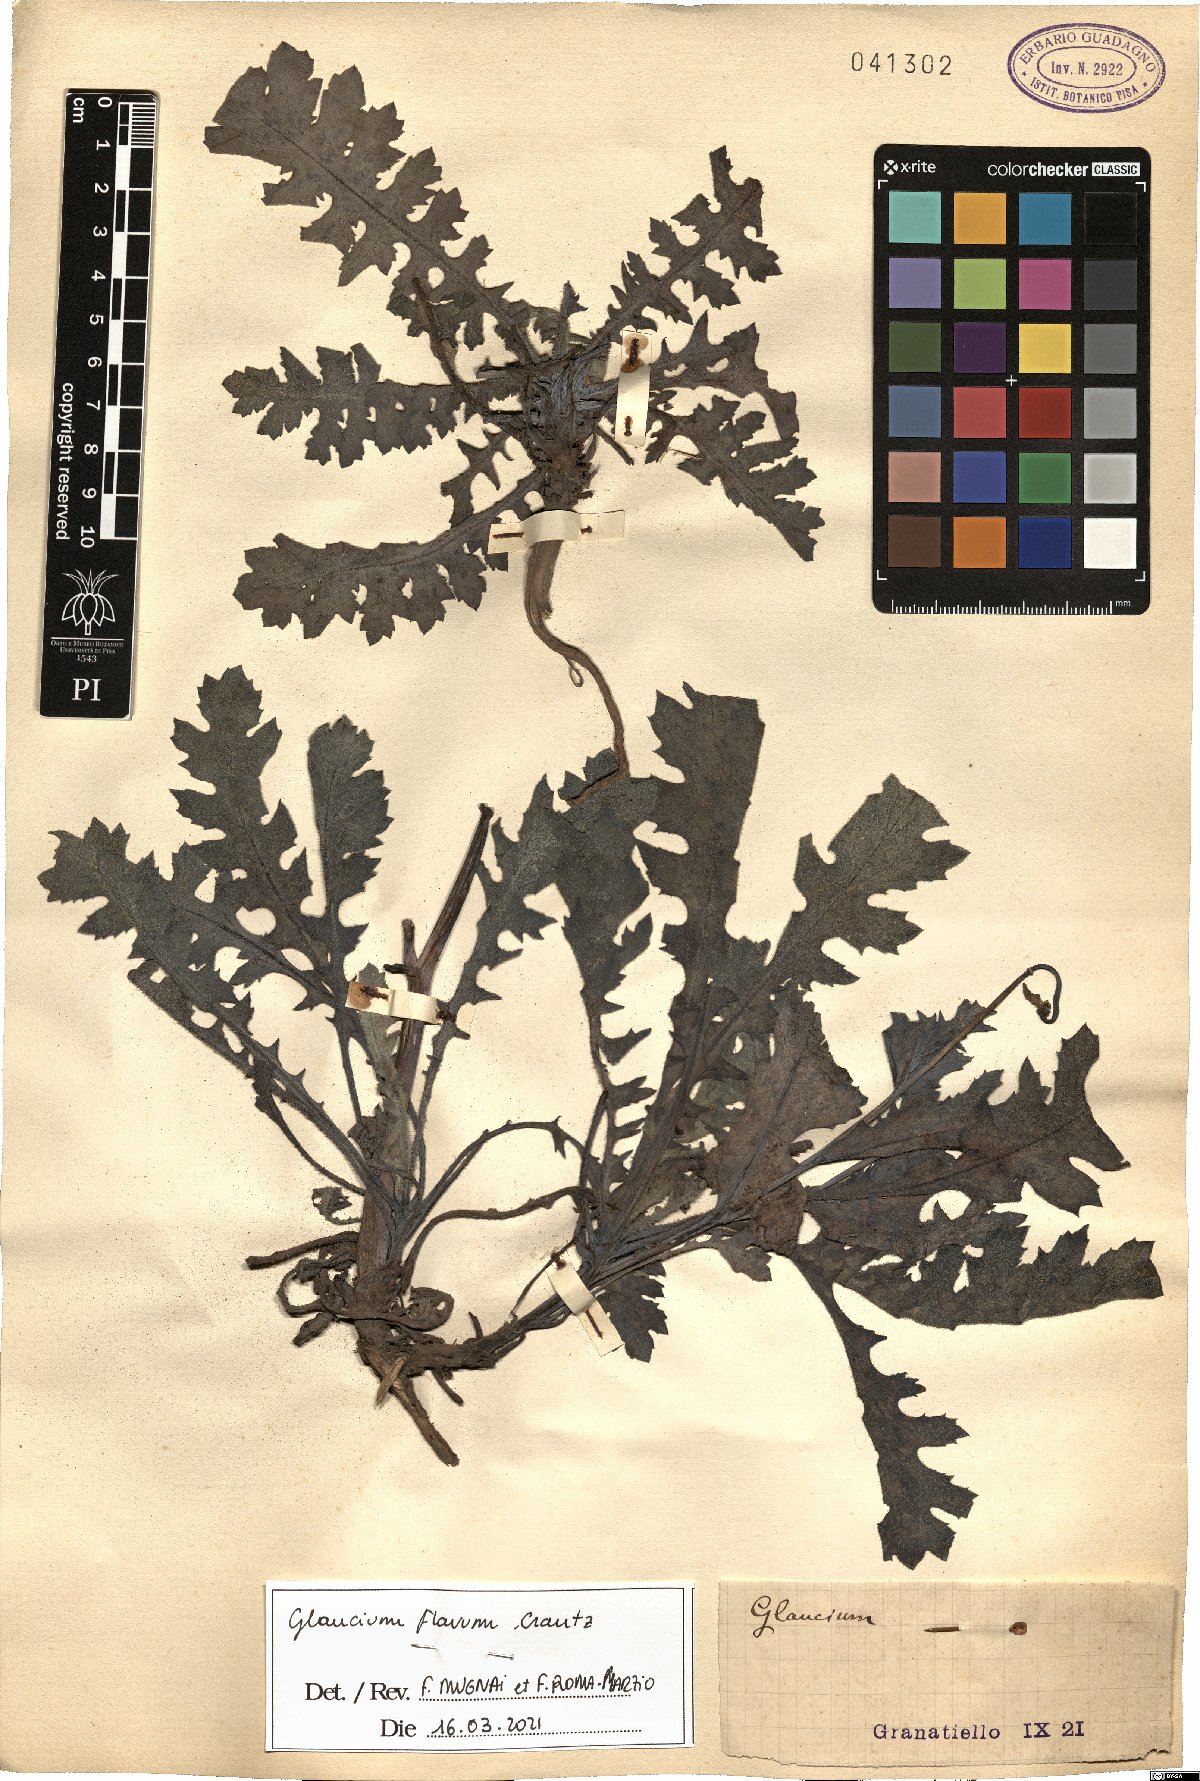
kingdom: Plantae
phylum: Tracheophyta
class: Magnoliopsida
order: Ranunculales
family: Papaveraceae
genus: Glaucium
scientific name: Glaucium flavum
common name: Yellow horned-poppy
